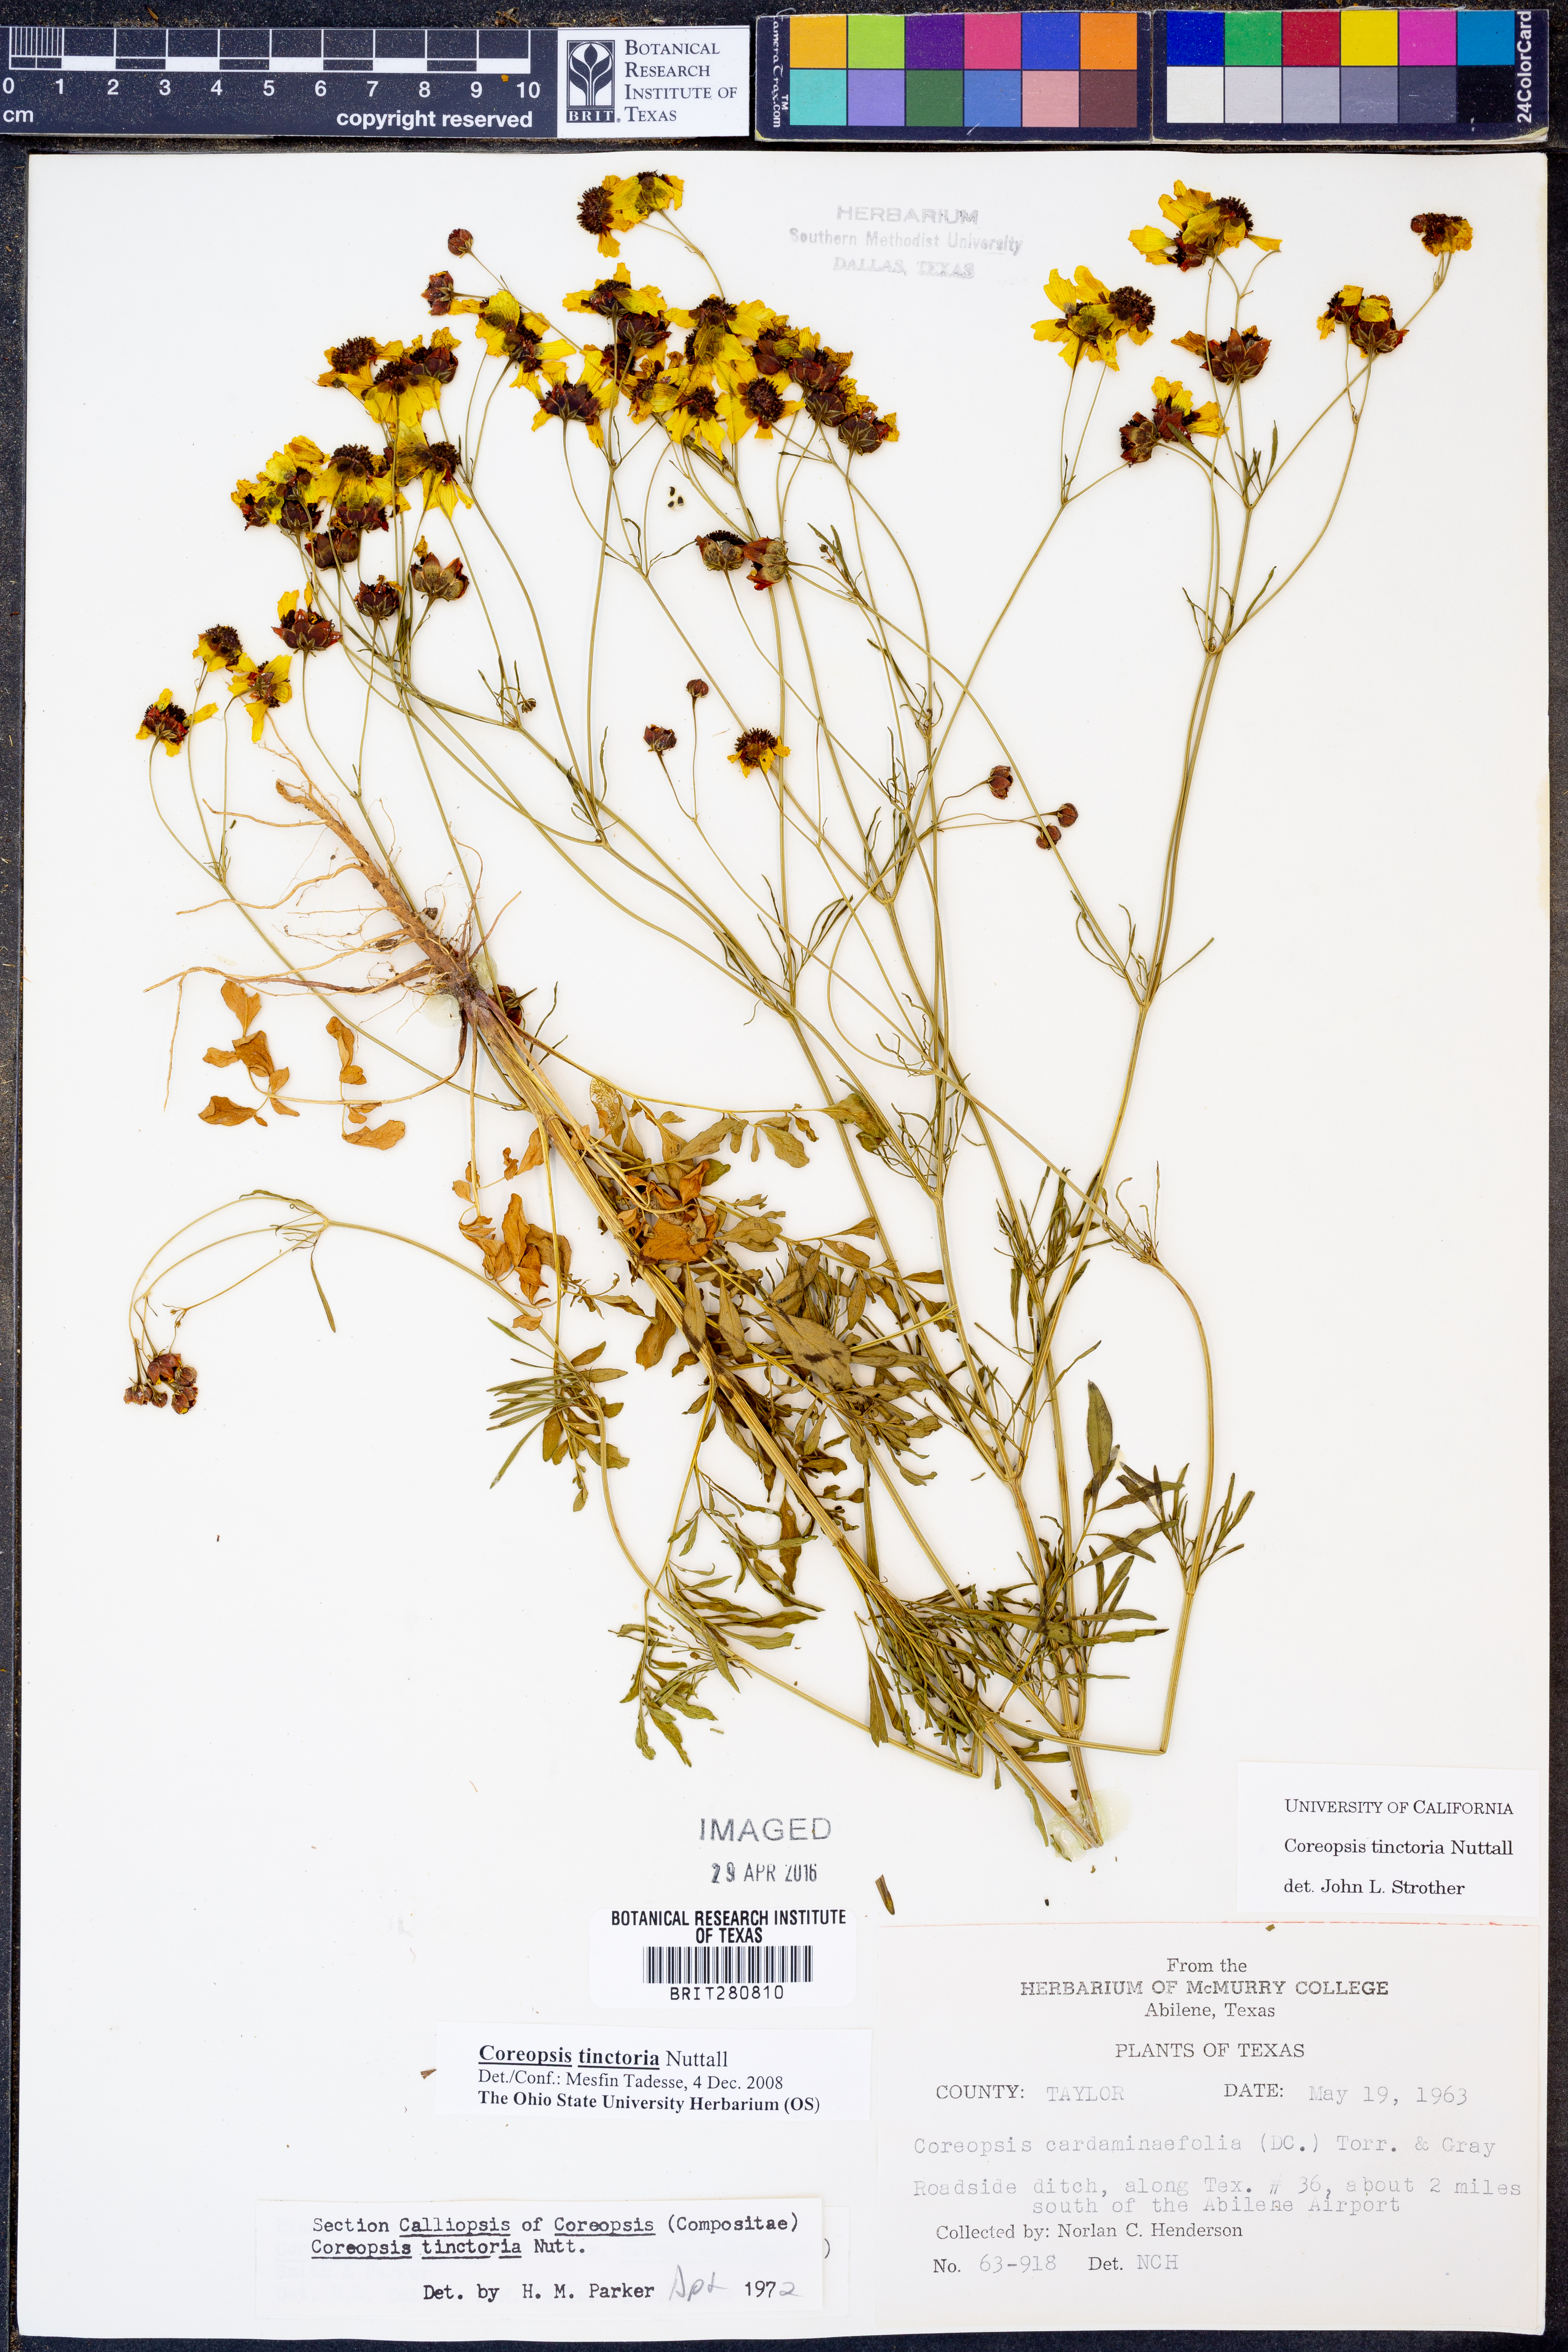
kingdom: Plantae
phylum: Tracheophyta
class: Magnoliopsida
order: Asterales
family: Asteraceae
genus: Coreopsis
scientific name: Coreopsis tinctoria
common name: Garden tickseed
